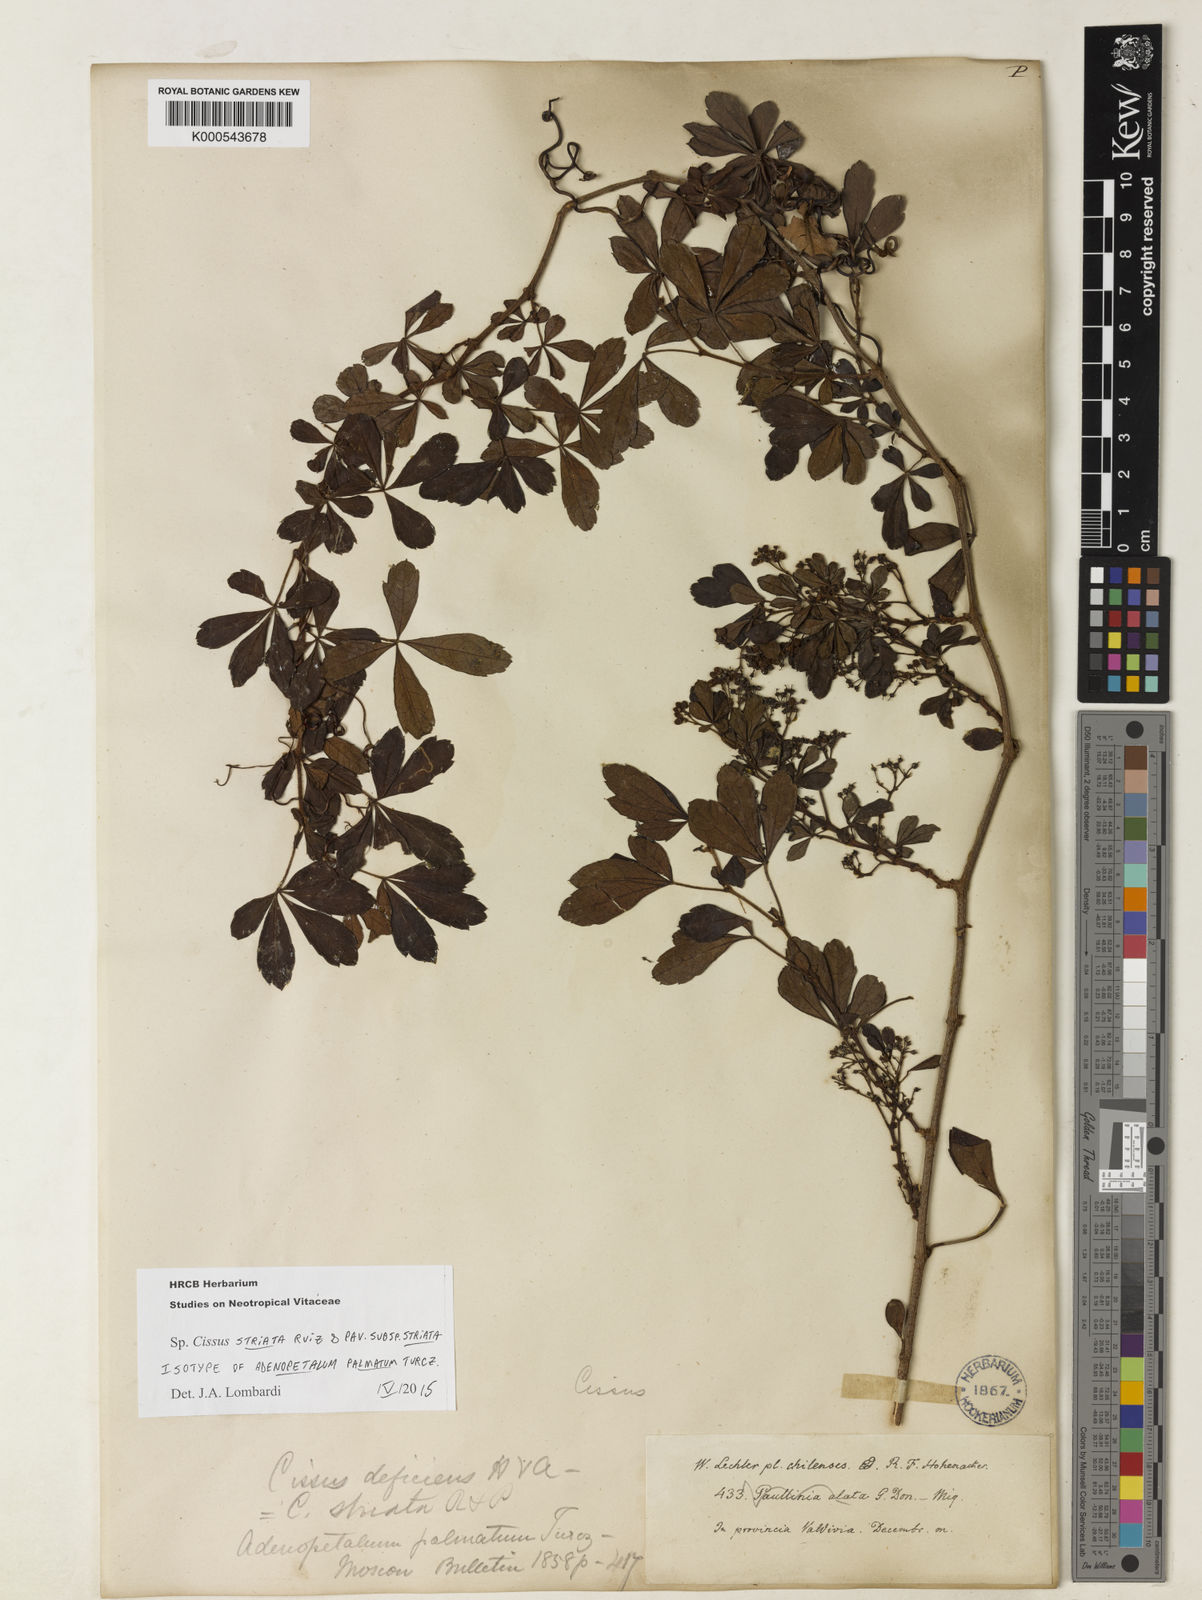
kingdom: Plantae
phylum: Tracheophyta
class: Magnoliopsida
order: Vitales
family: Vitaceae
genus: Clematicissus
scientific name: Clematicissus striata
